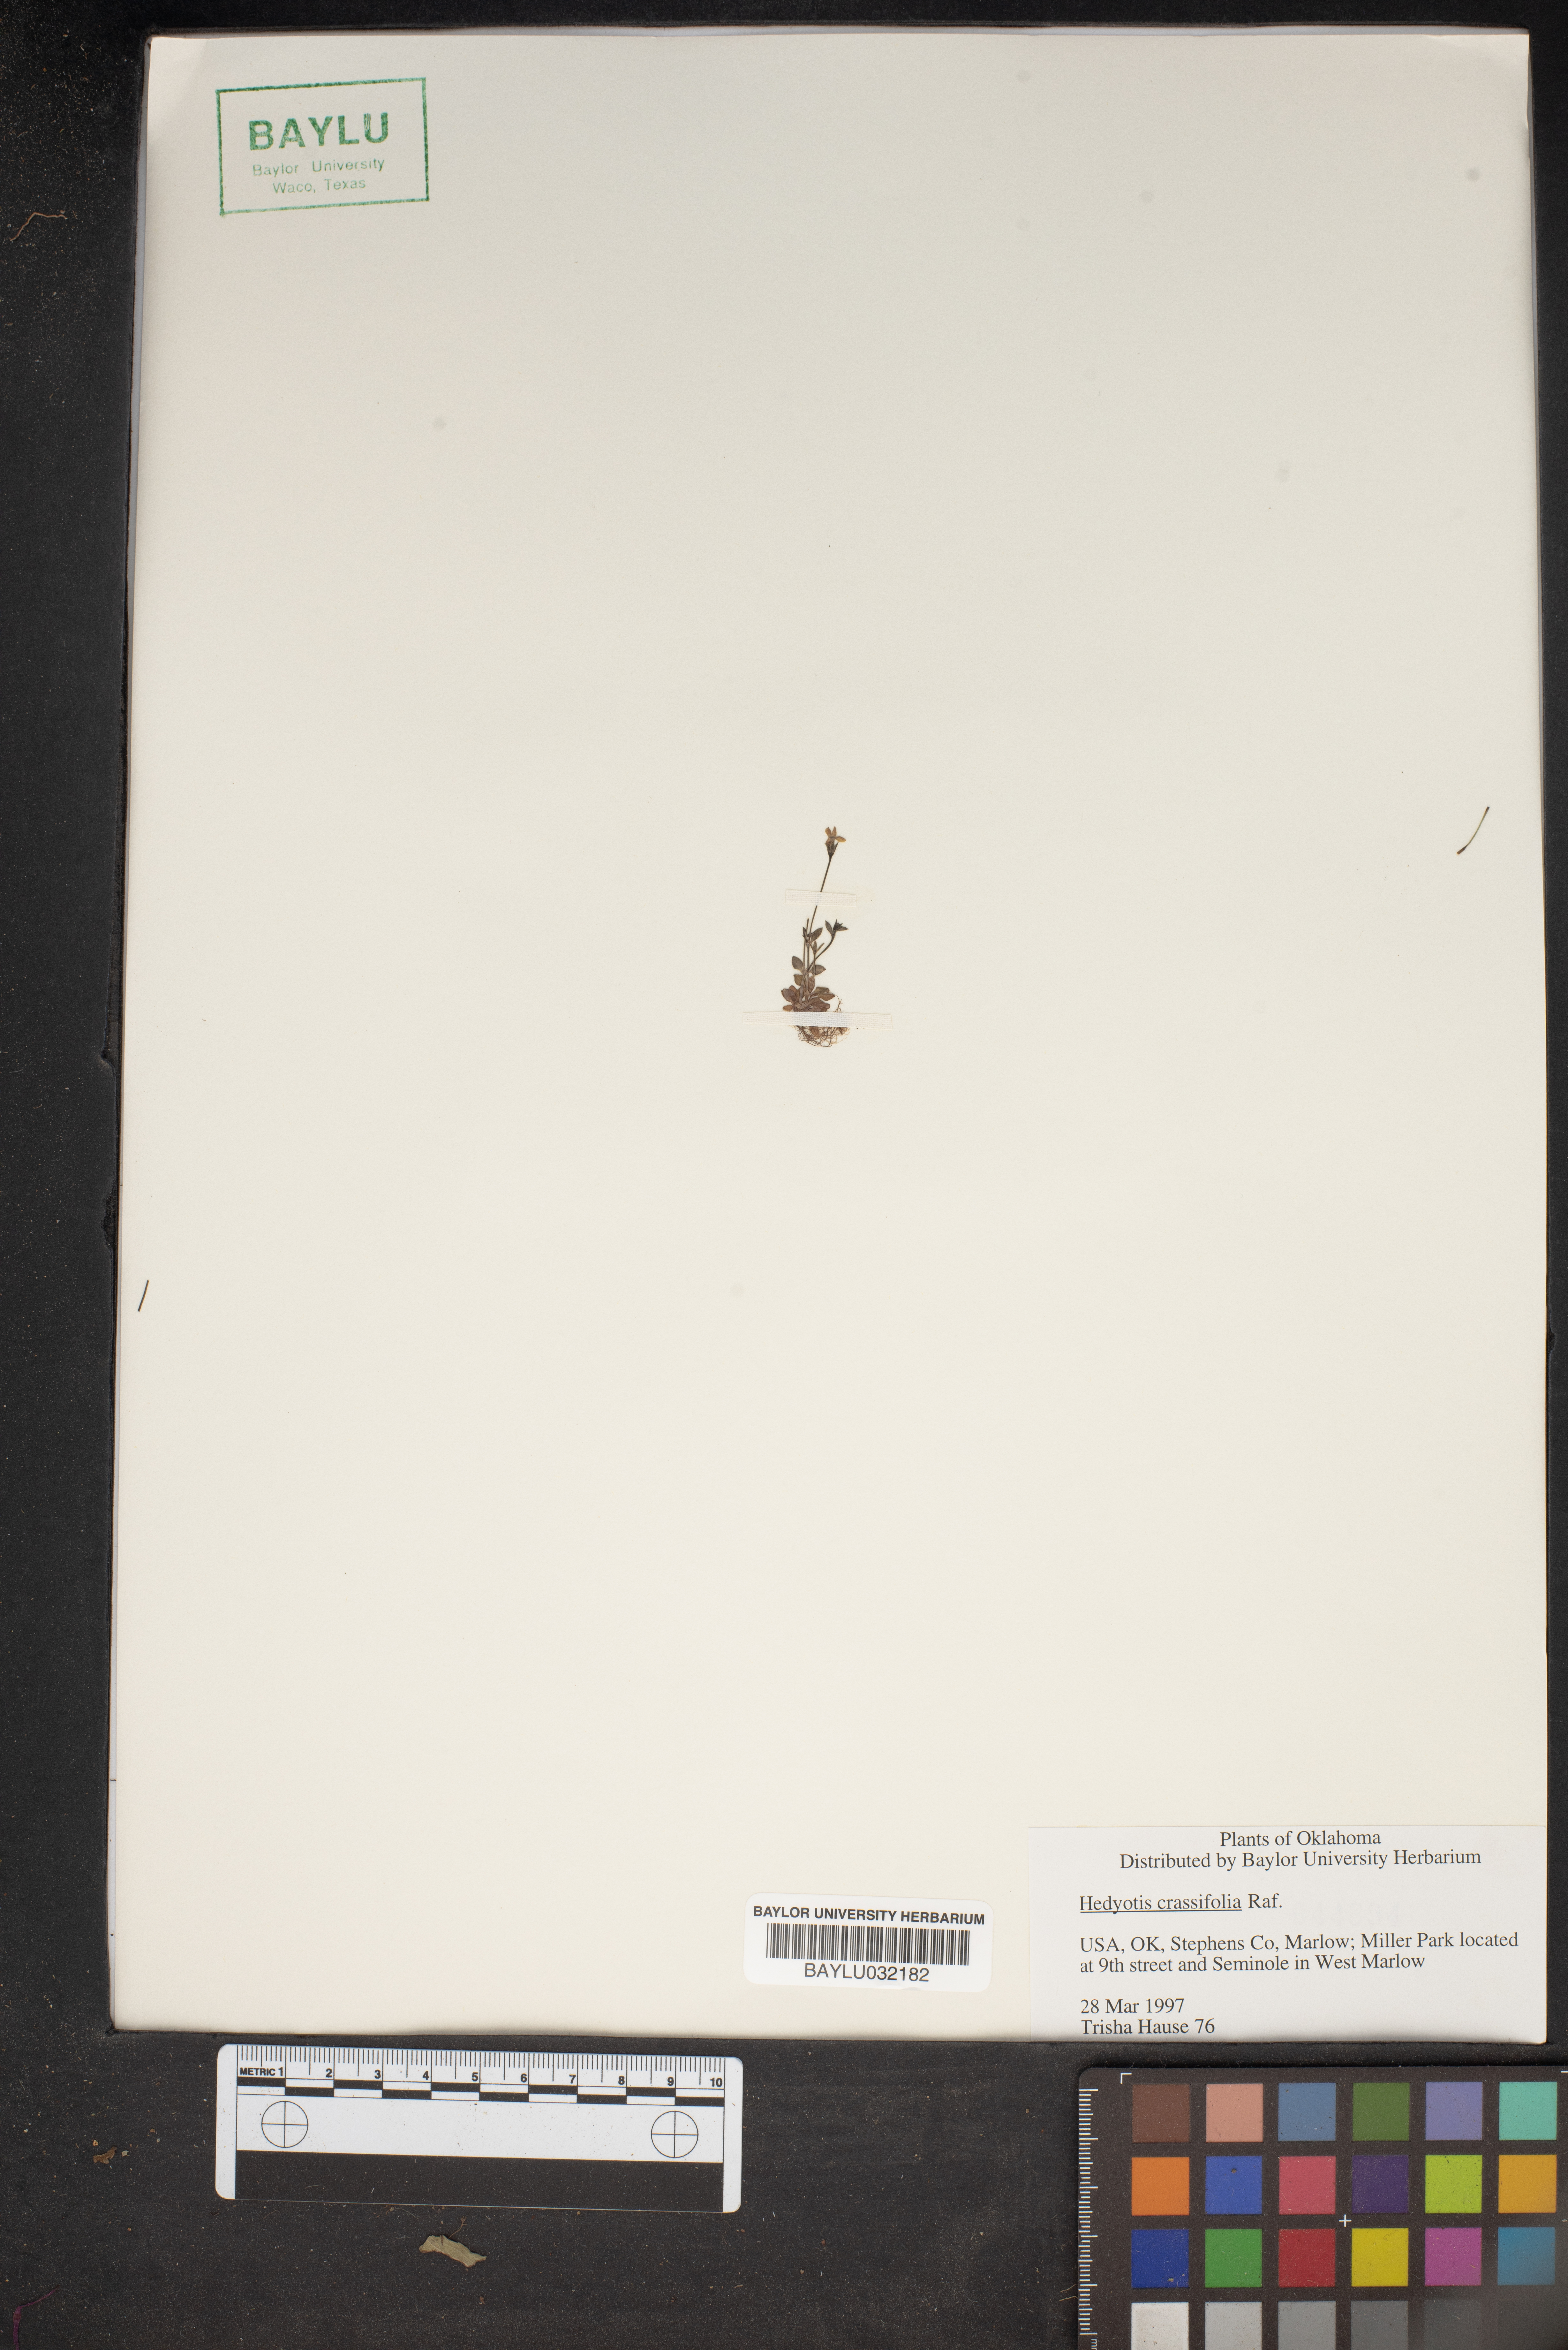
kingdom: Plantae
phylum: Tracheophyta
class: Magnoliopsida
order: Gentianales
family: Rubiaceae
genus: Houstonia
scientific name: Houstonia pusilla
